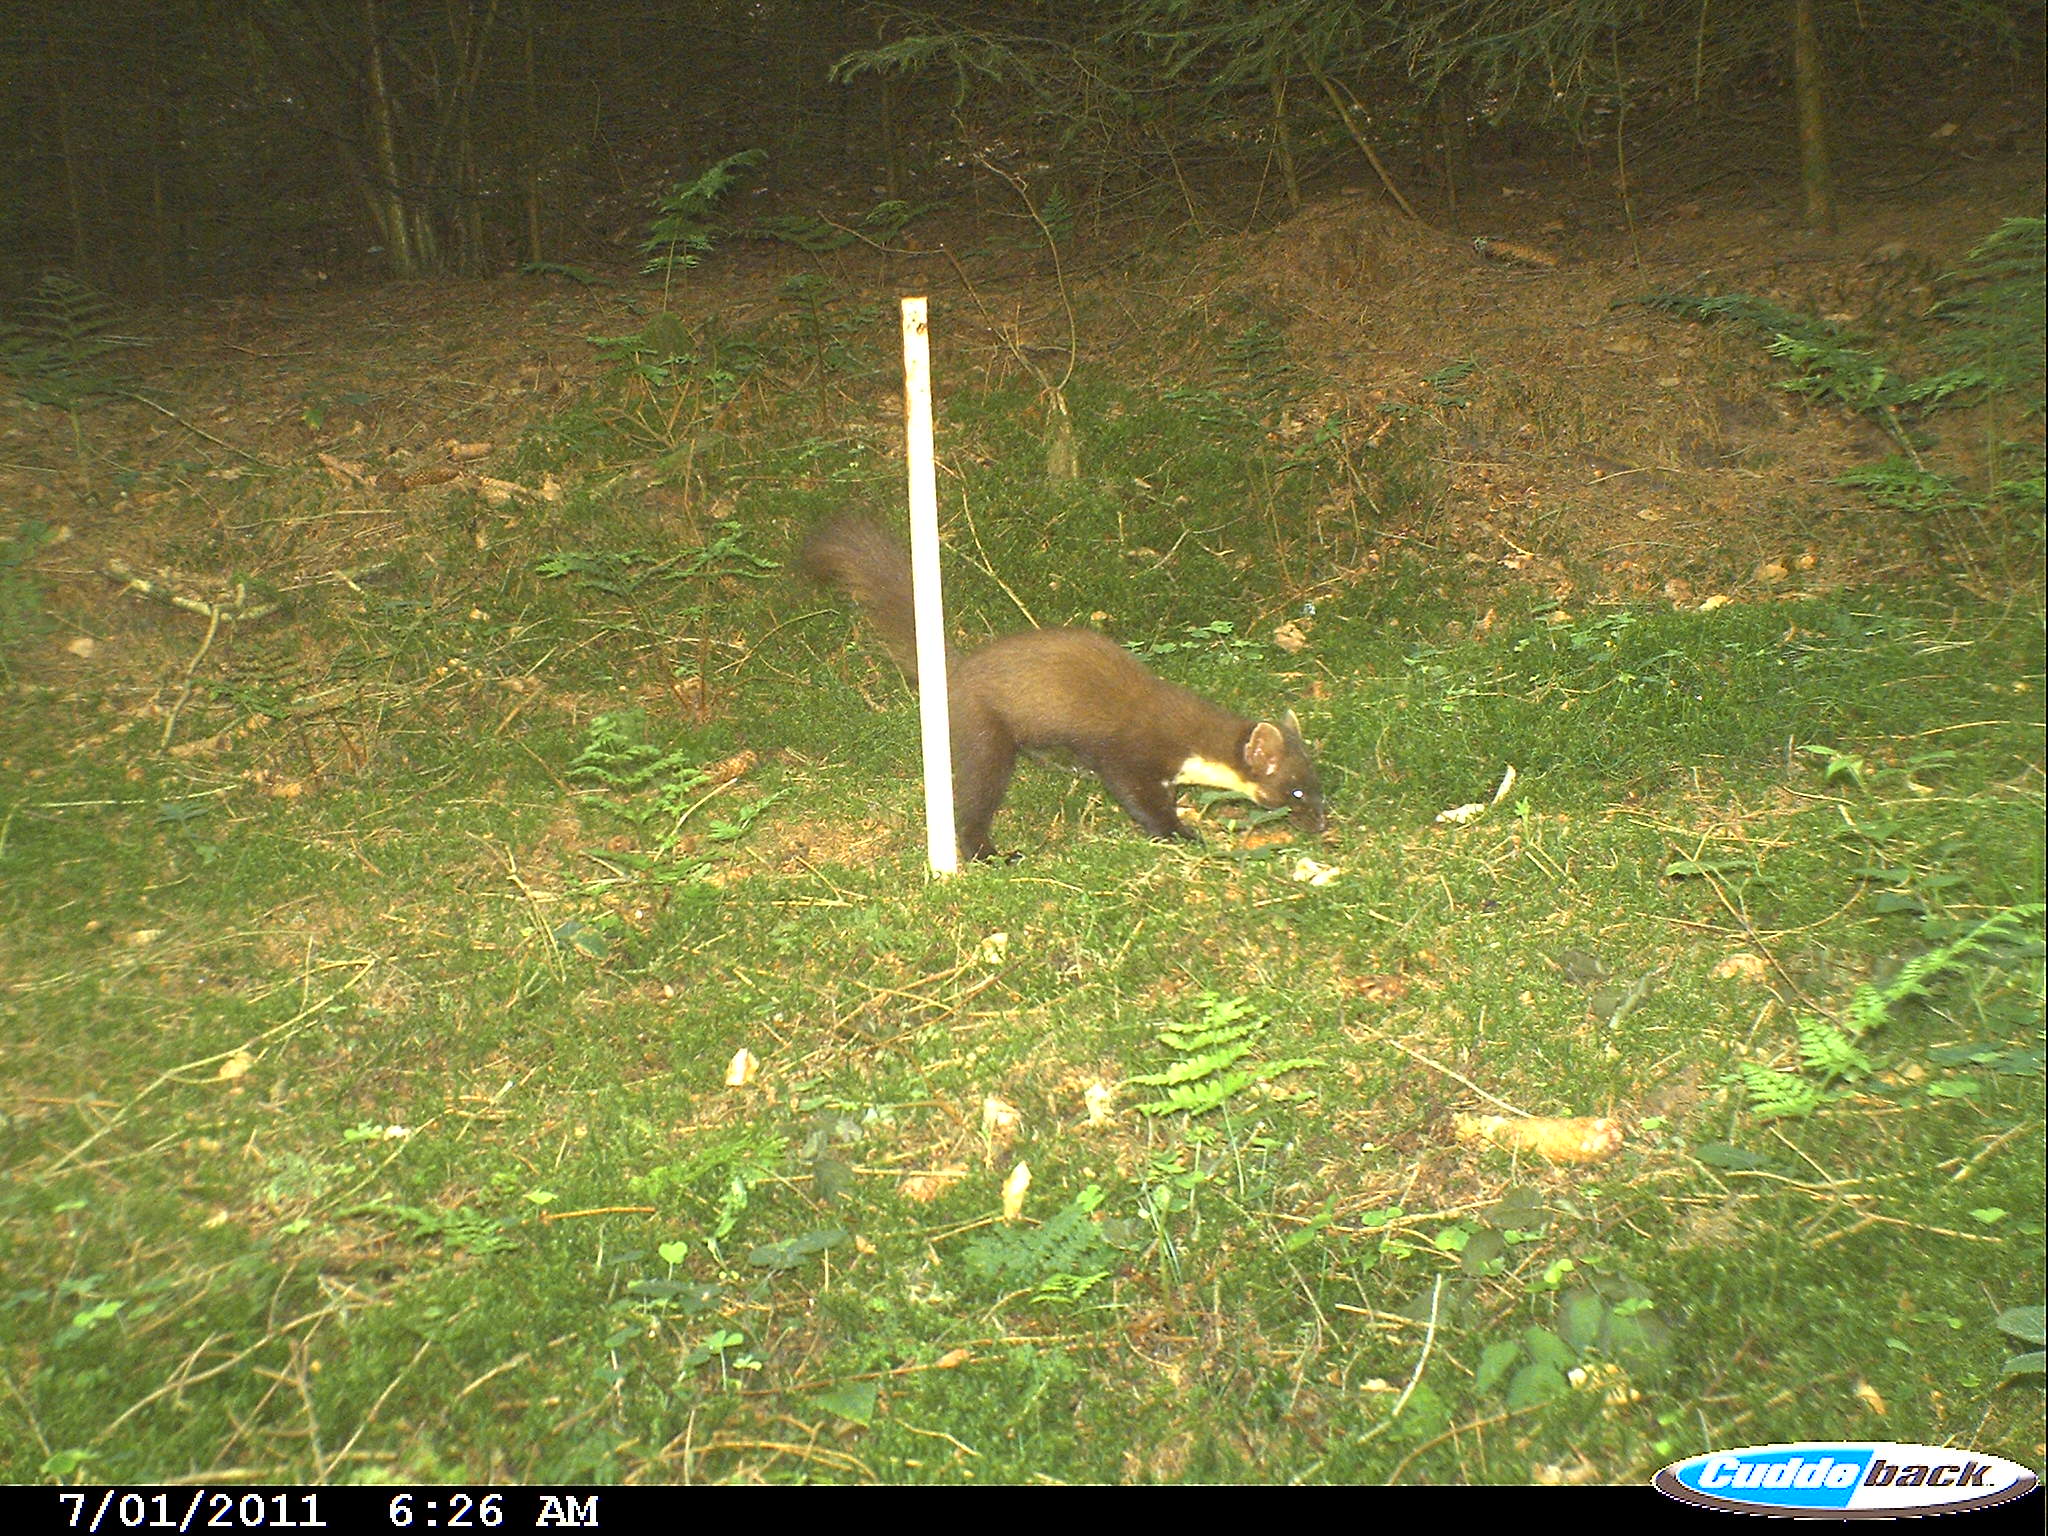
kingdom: Animalia
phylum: Chordata
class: Mammalia
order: Carnivora
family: Mustelidae
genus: Martes
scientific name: Martes martes
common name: European pine marten
